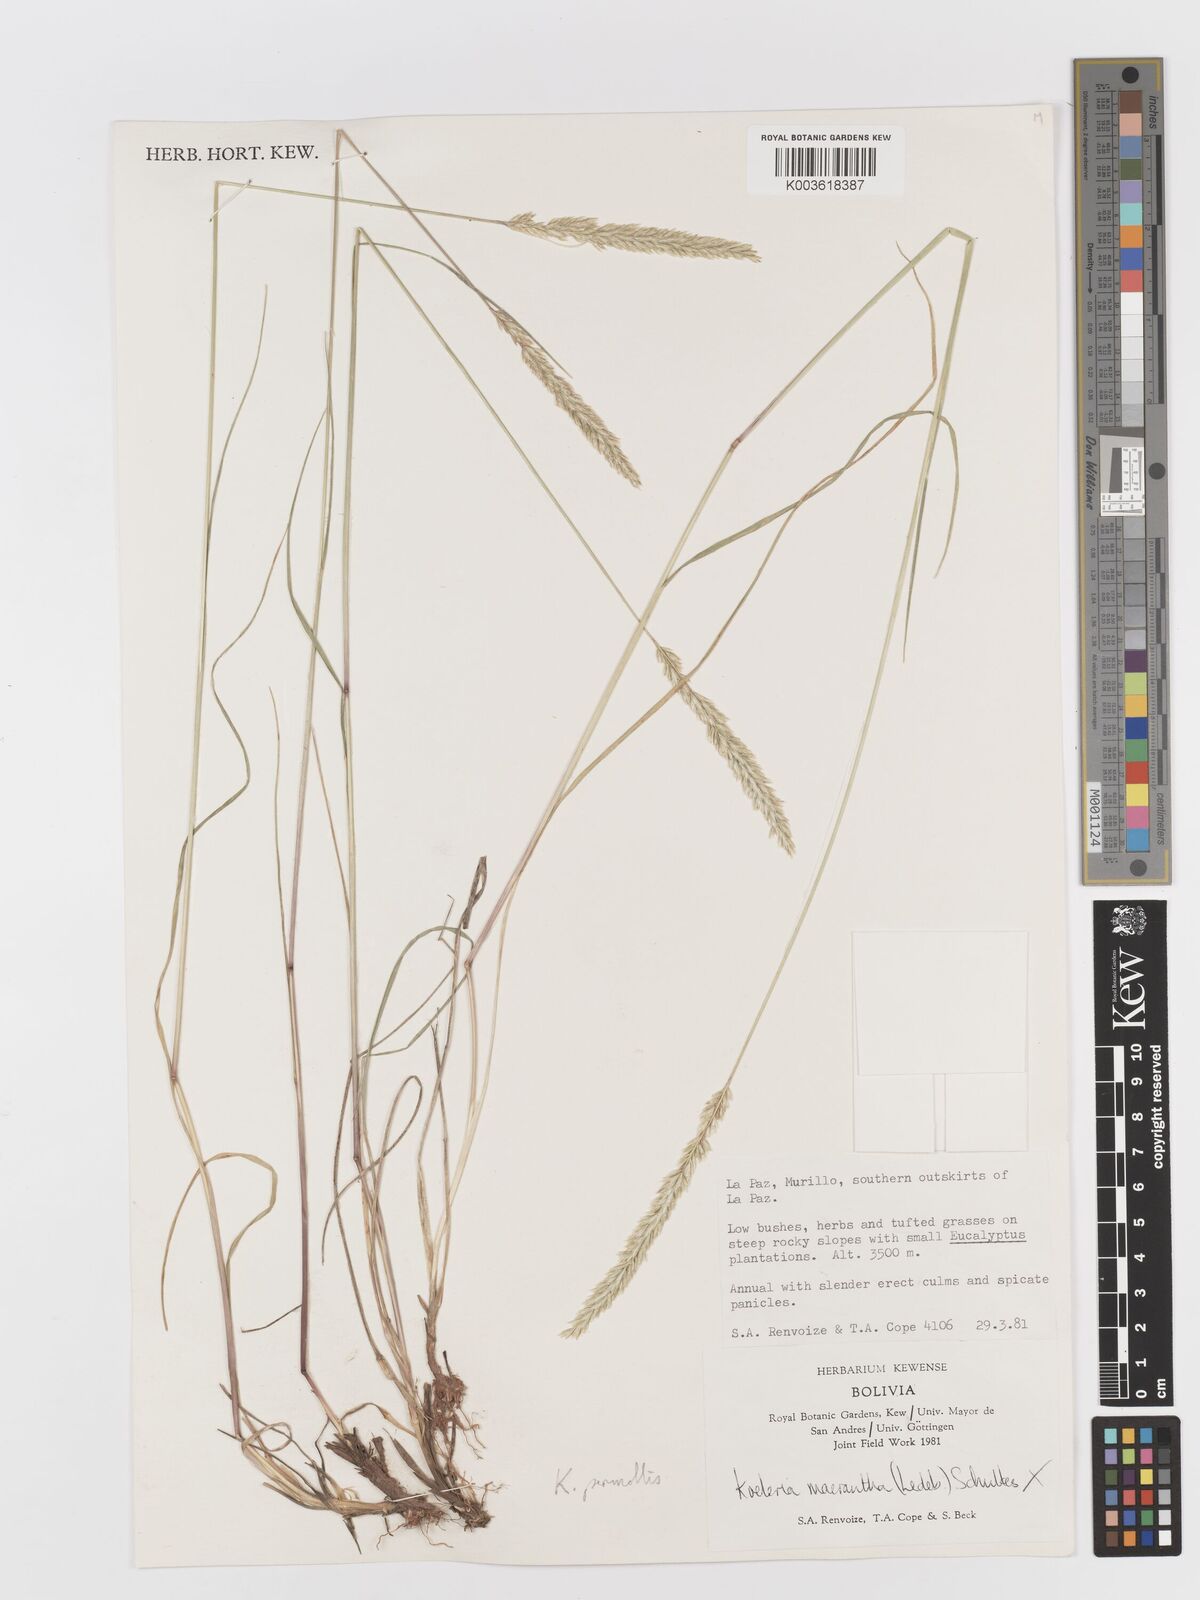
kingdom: Plantae
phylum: Tracheophyta
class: Liliopsida
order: Poales
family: Poaceae
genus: Koeleria
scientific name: Koeleria permollis
